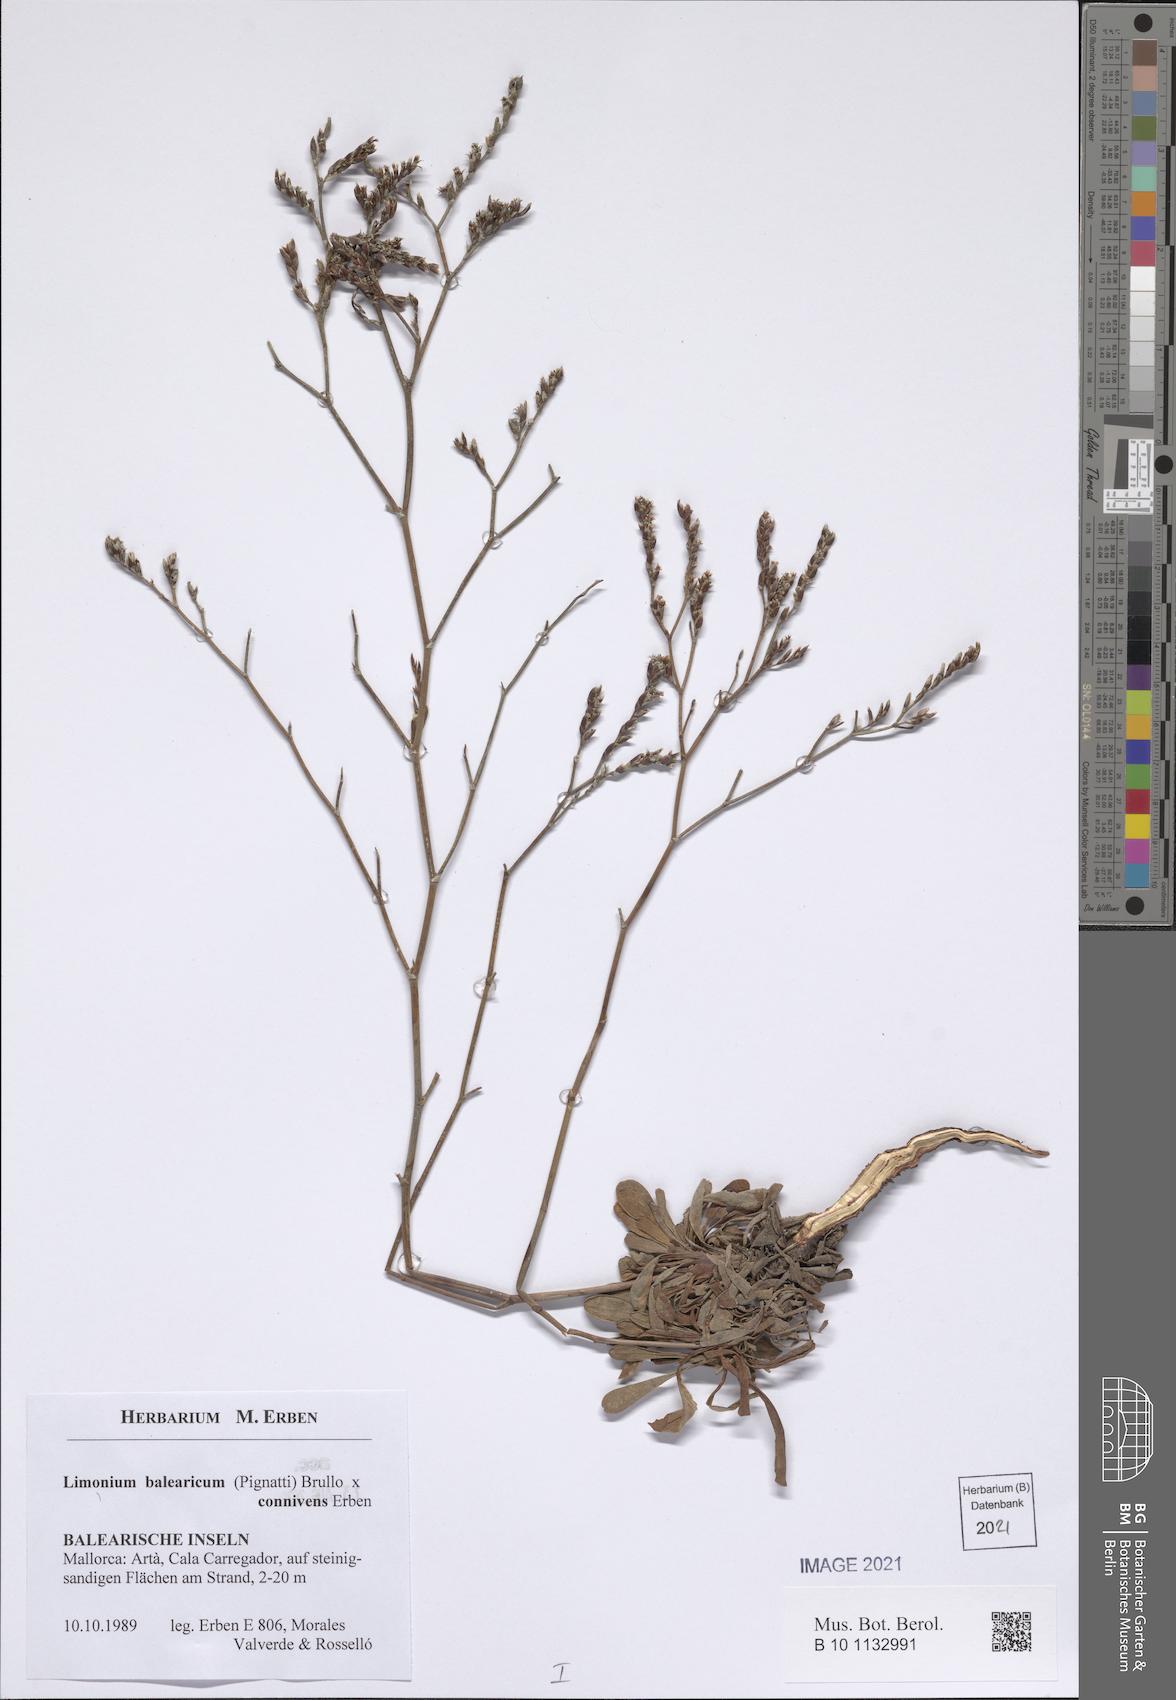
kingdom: Plantae
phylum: Tracheophyta
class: Magnoliopsida
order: Caryophyllales
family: Plumbaginaceae
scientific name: Plumbaginaceae
